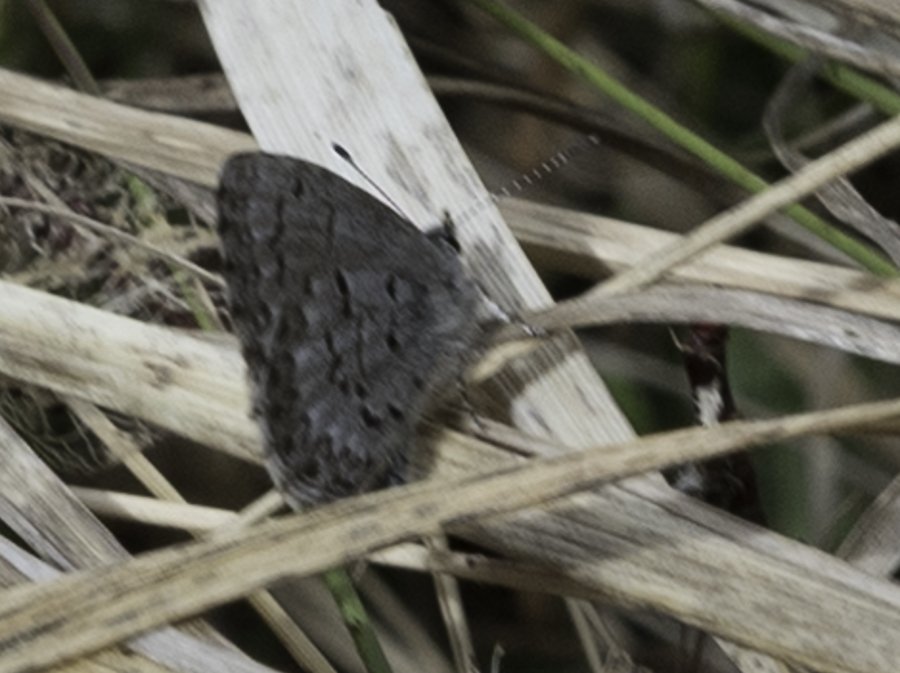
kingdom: Animalia
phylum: Arthropoda
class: Insecta
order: Lepidoptera
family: Lycaenidae
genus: Celastrina
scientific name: Celastrina lucia
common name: Northern Spring Azure
